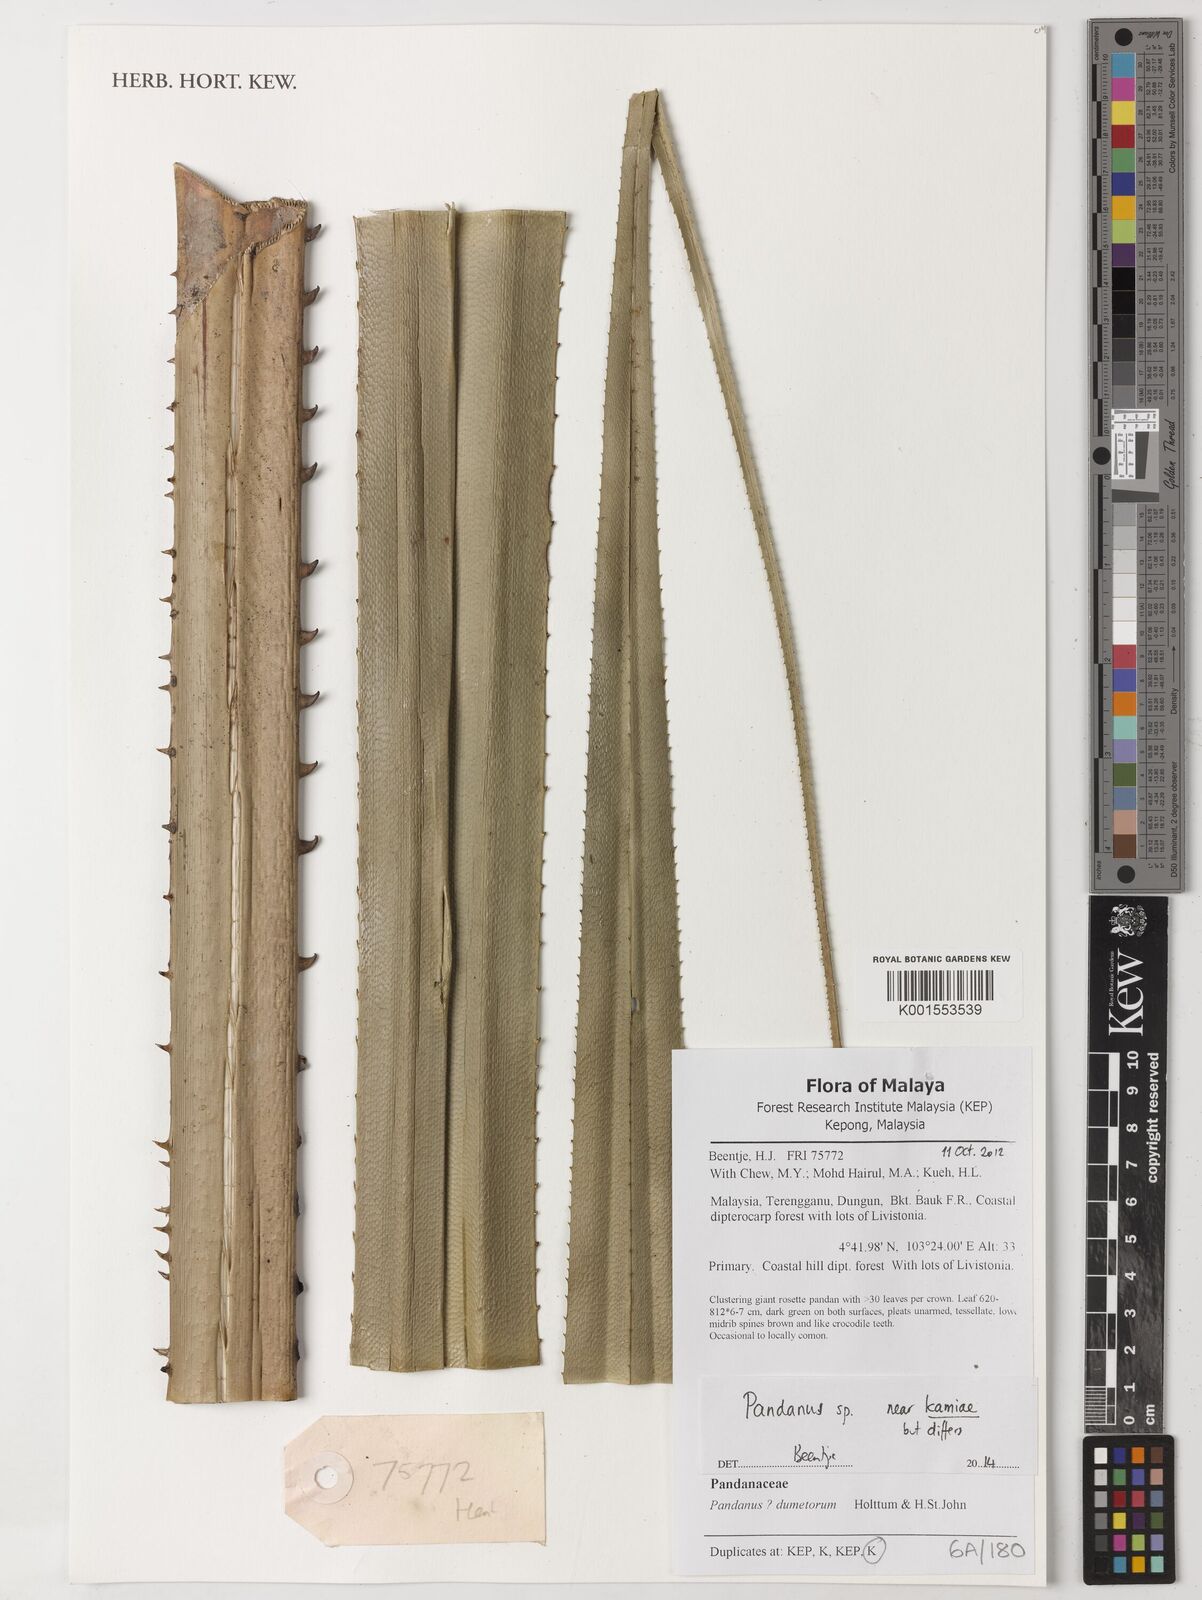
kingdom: Plantae
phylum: Tracheophyta
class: Liliopsida
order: Pandanales
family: Pandanaceae
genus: Pandanus
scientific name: Pandanus kamiae
